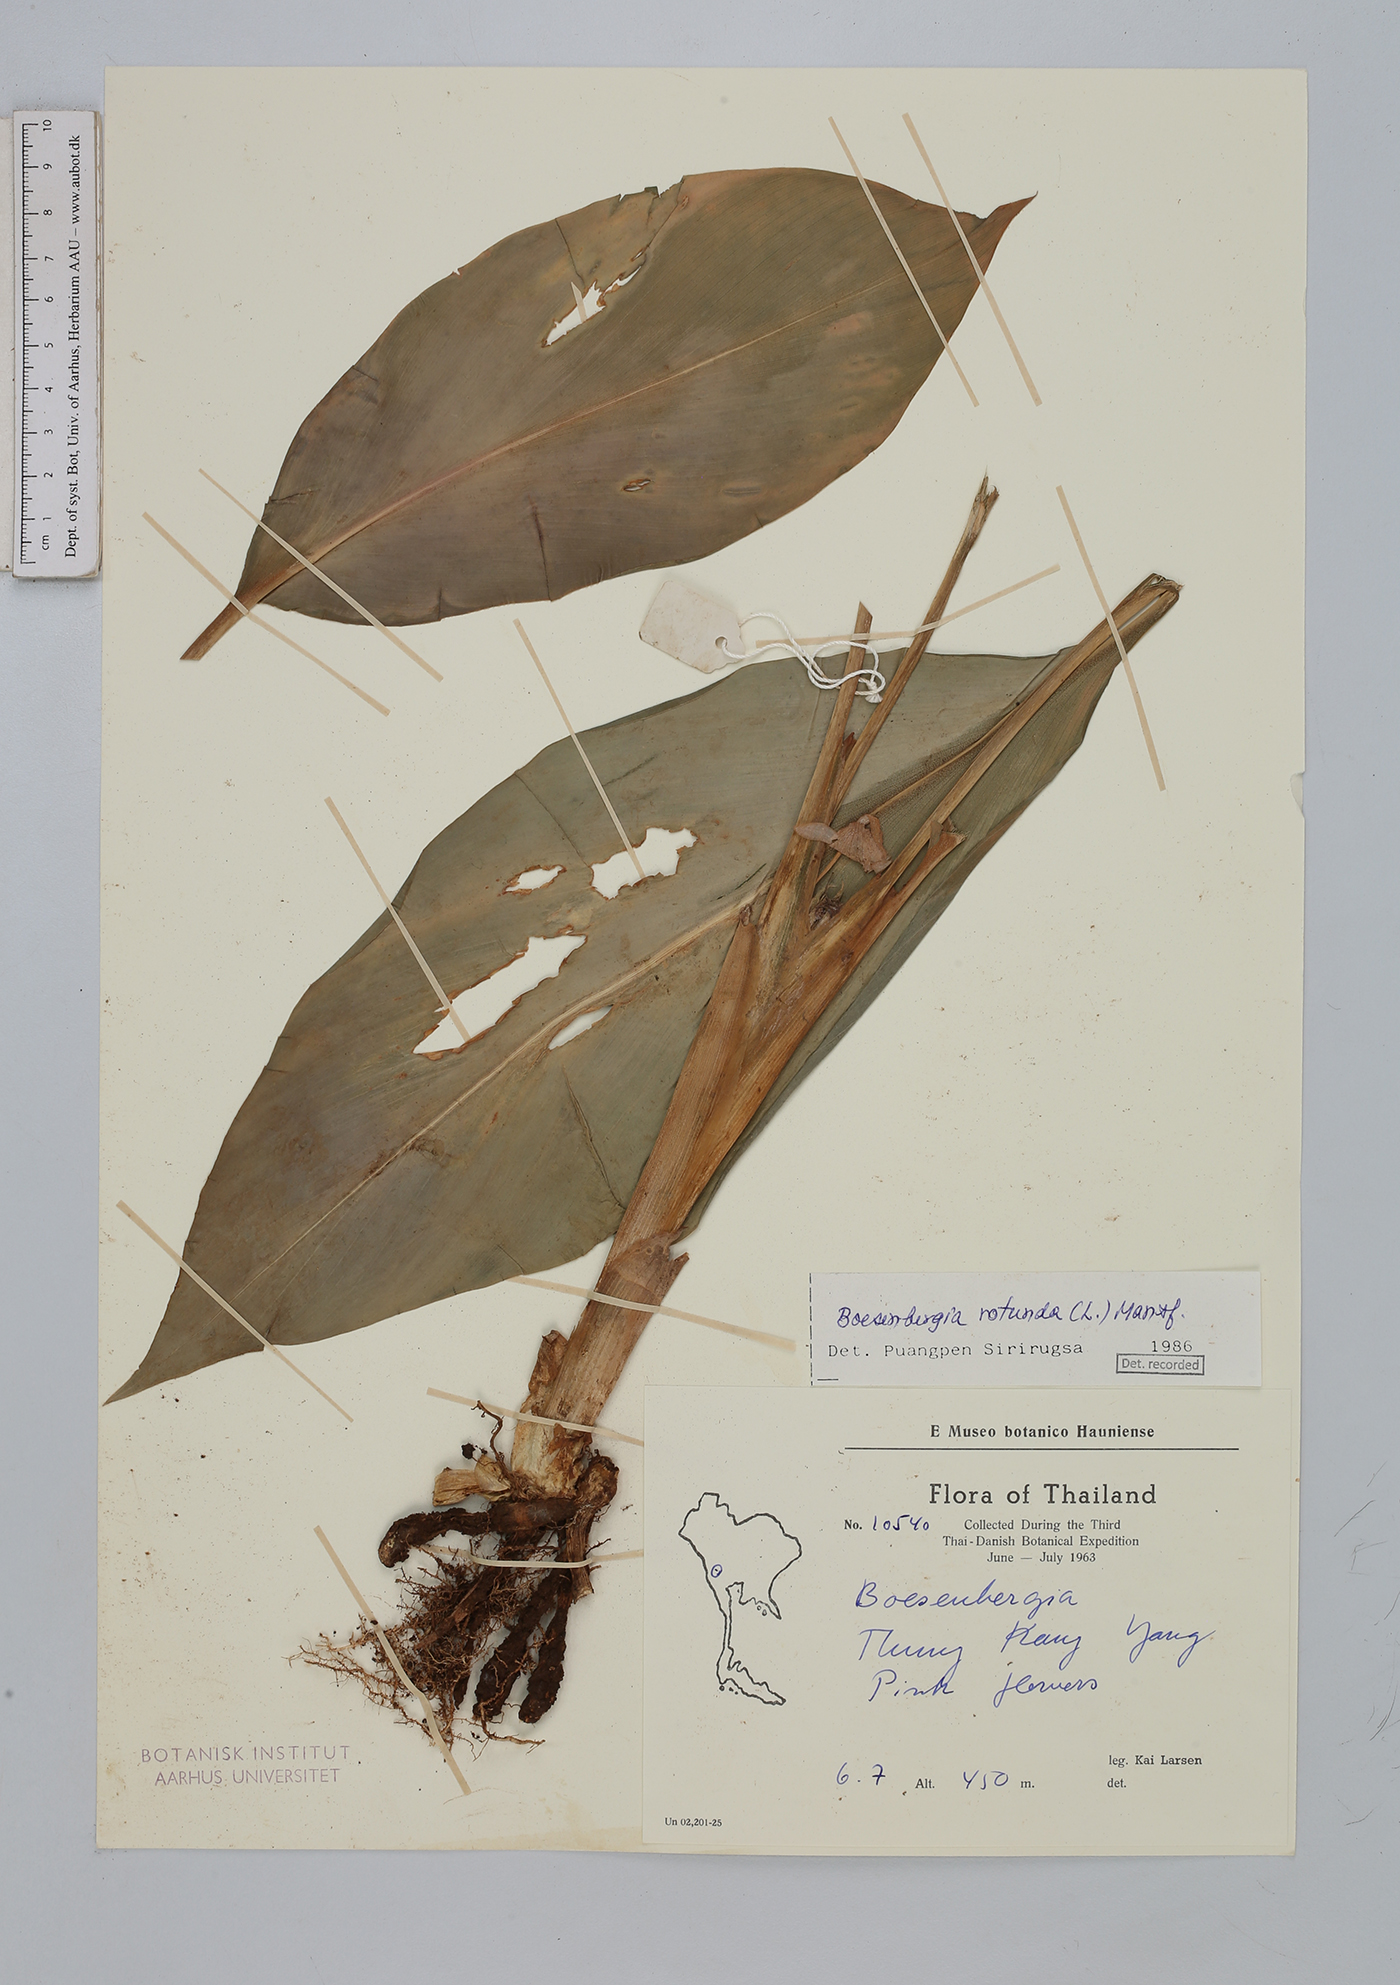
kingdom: Plantae
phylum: Tracheophyta
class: Liliopsida
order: Zingiberales
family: Zingiberaceae
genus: Boesenbergia
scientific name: Boesenbergia rotunda
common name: Chinese ginger
